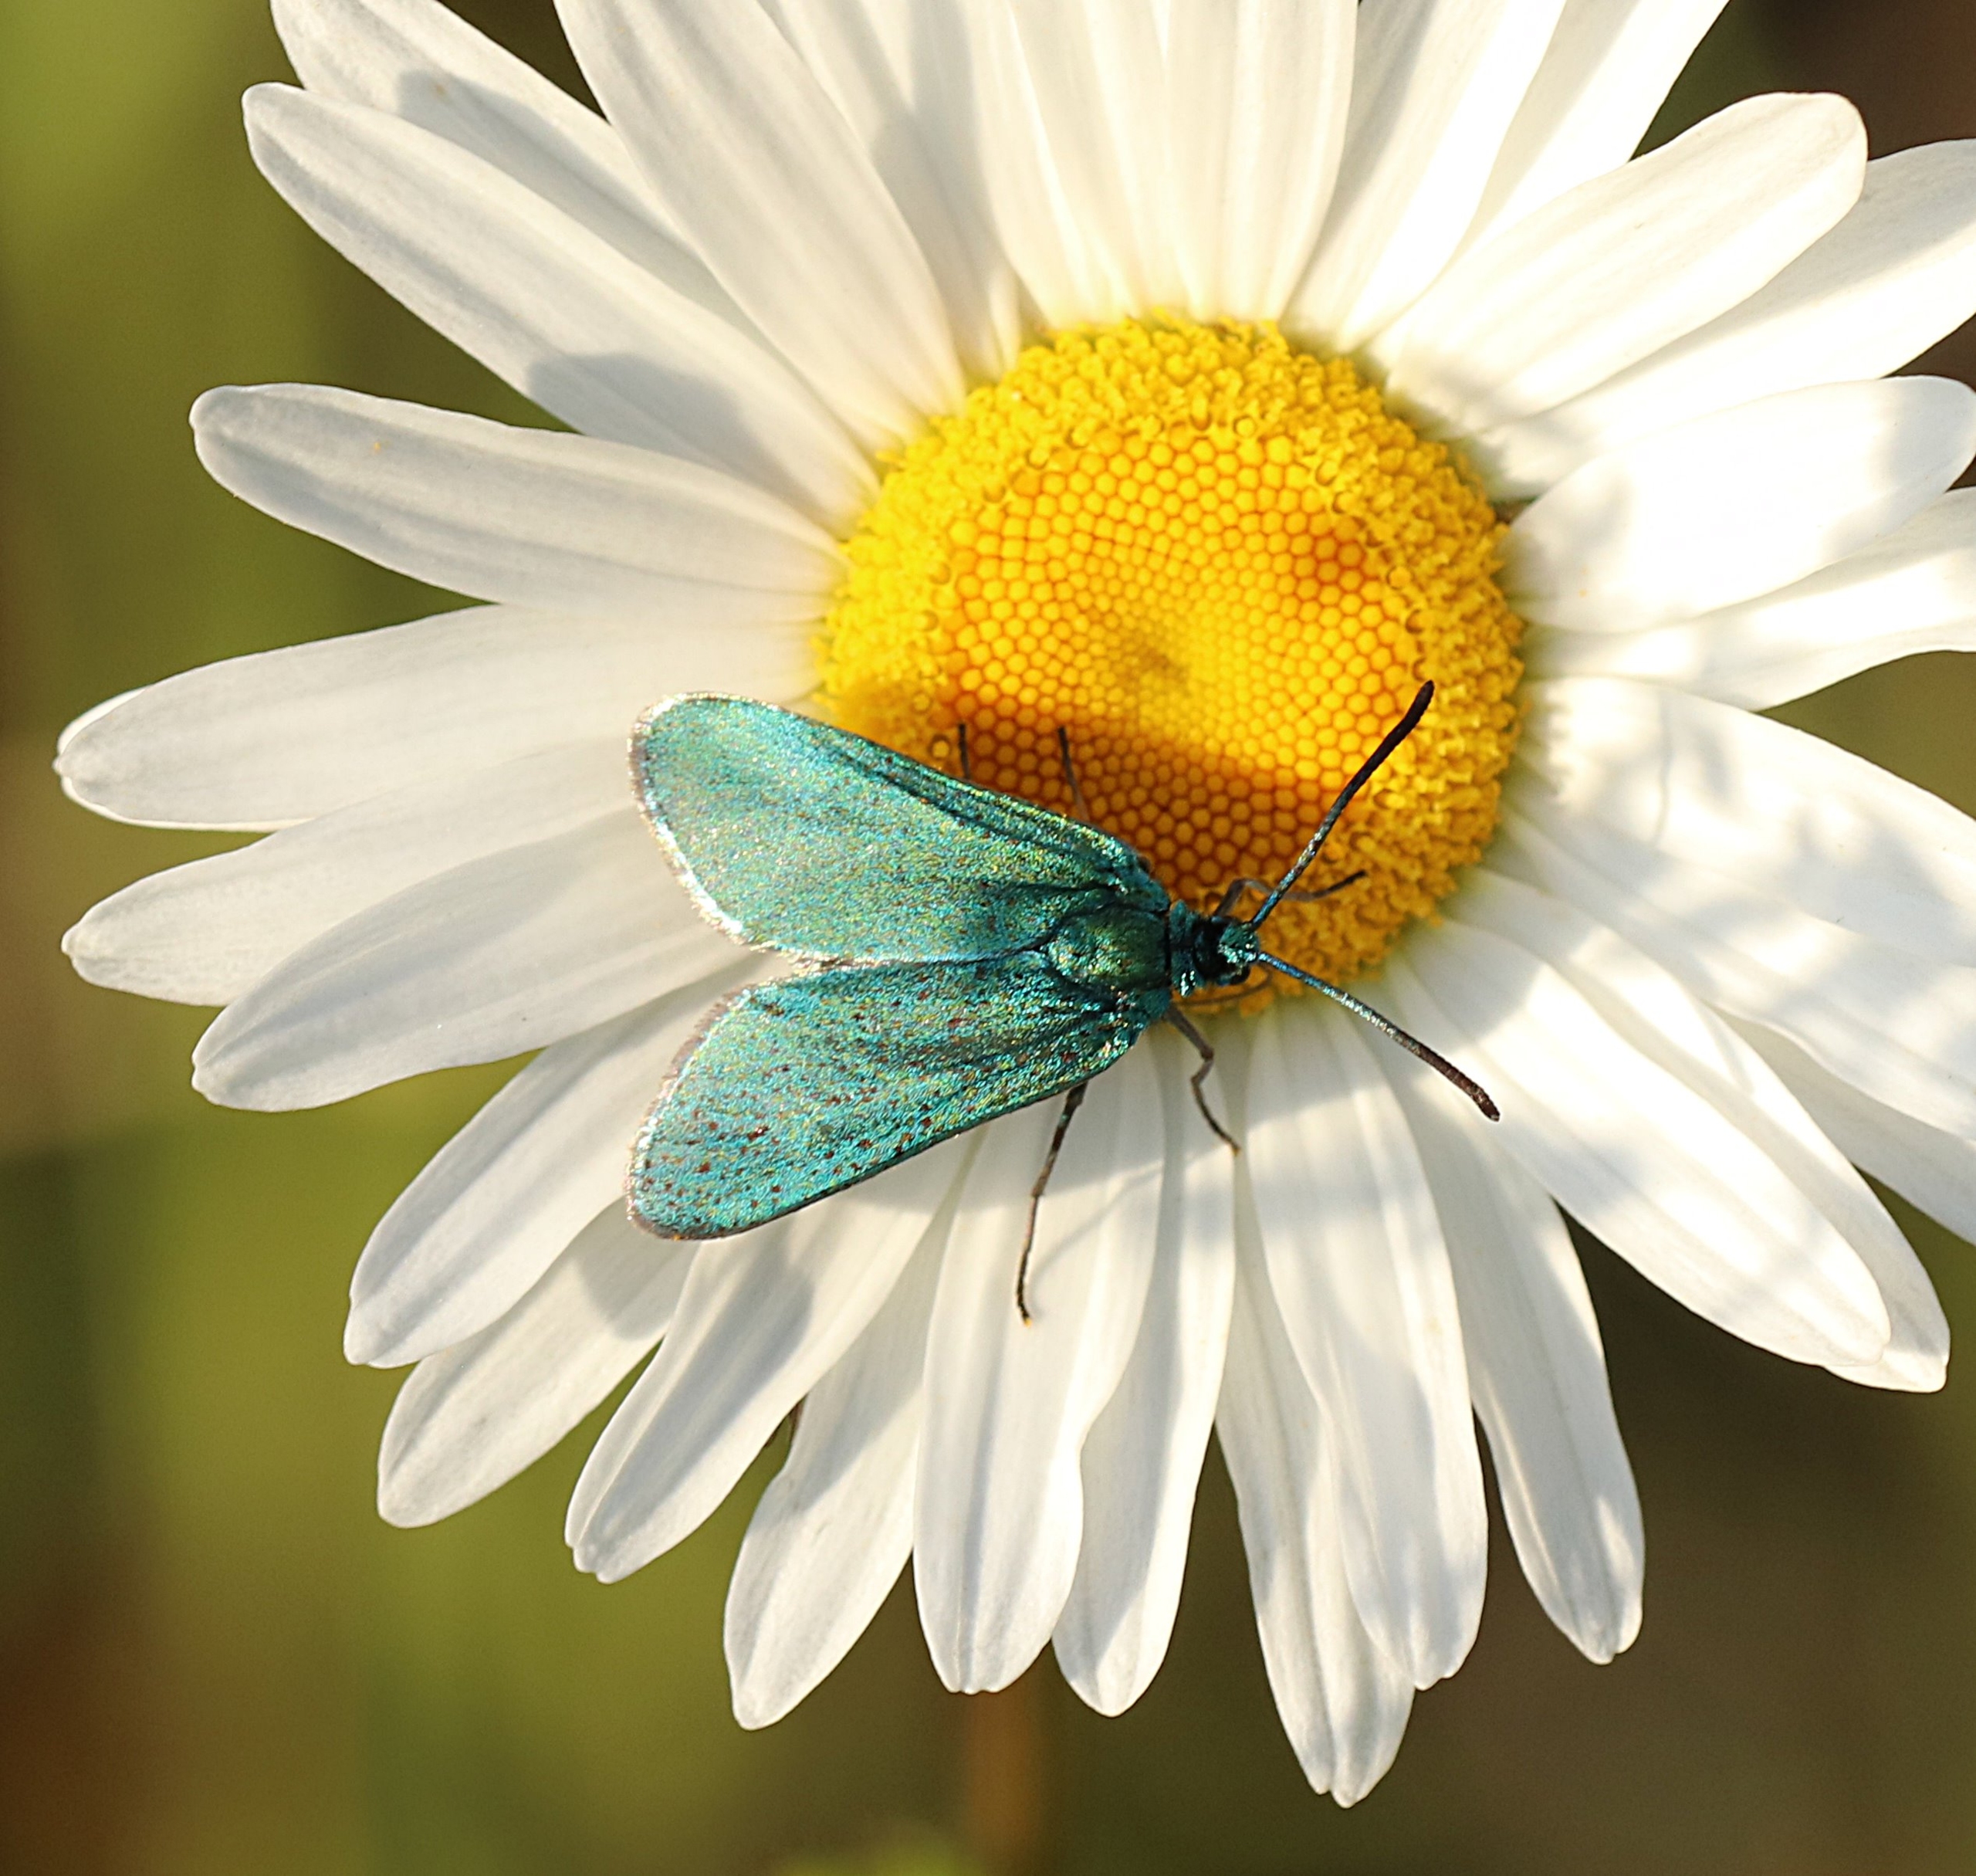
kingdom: Animalia
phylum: Arthropoda
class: Insecta
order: Lepidoptera
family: Zygaenidae
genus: Adscita
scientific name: Adscita statices
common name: Metalvinge
